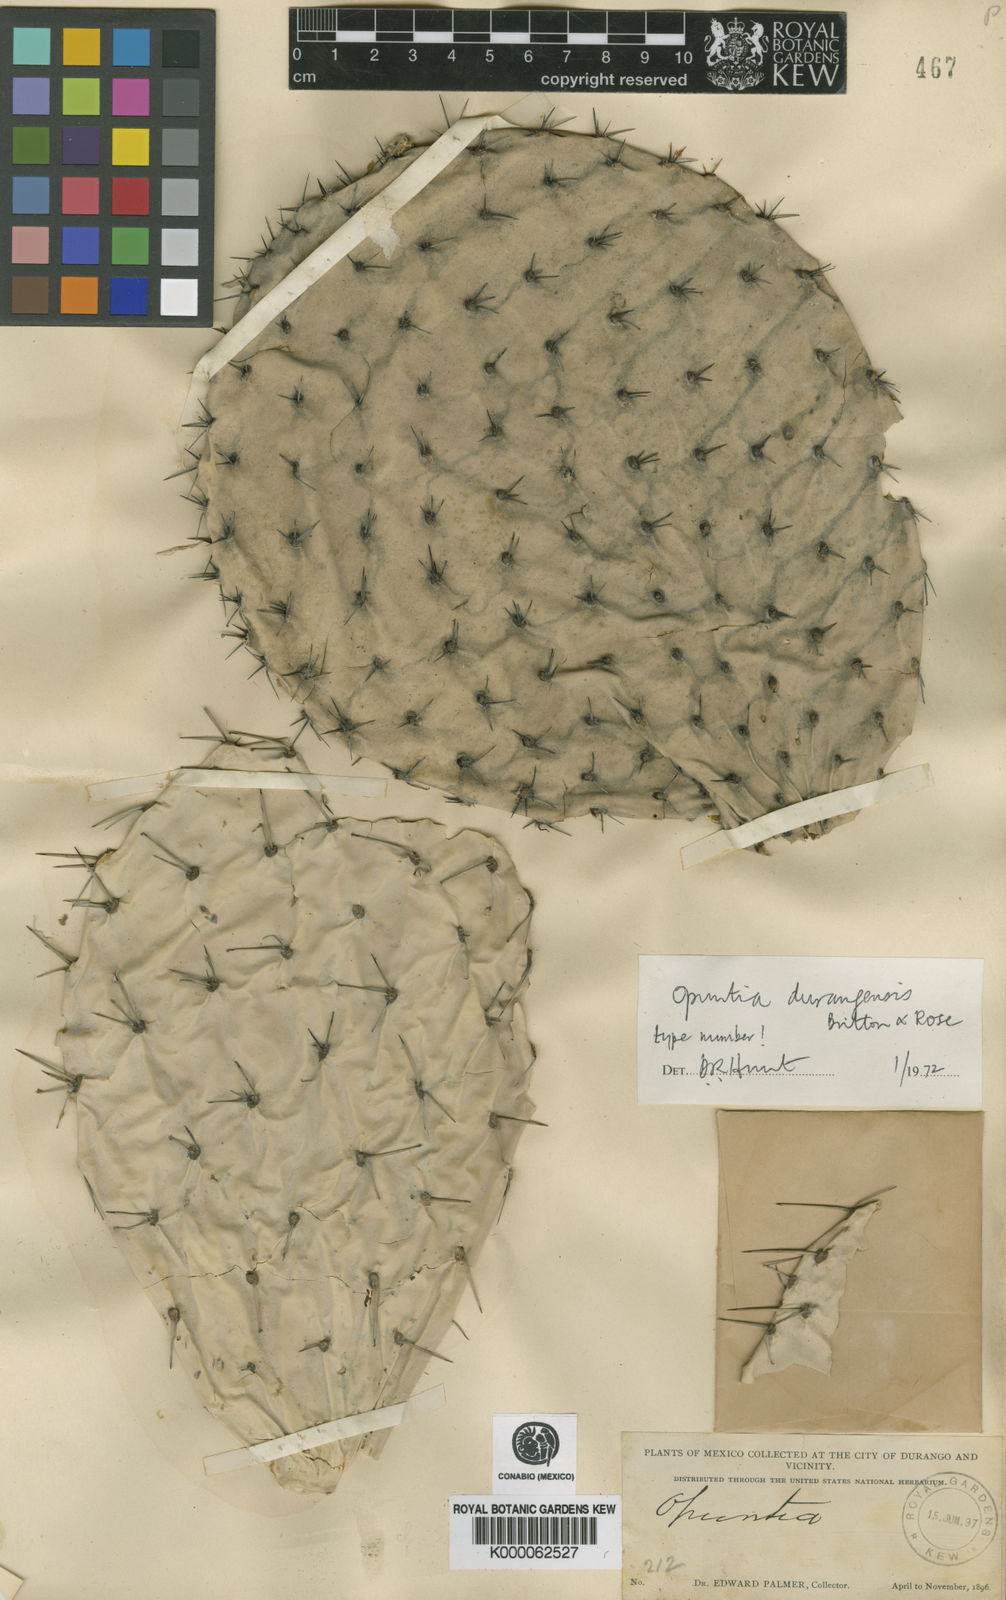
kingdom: Plantae
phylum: Tracheophyta
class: Magnoliopsida
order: Caryophyllales
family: Cactaceae
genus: Opuntia
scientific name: Opuntia leucotricha
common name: Arborescent pricklypear
